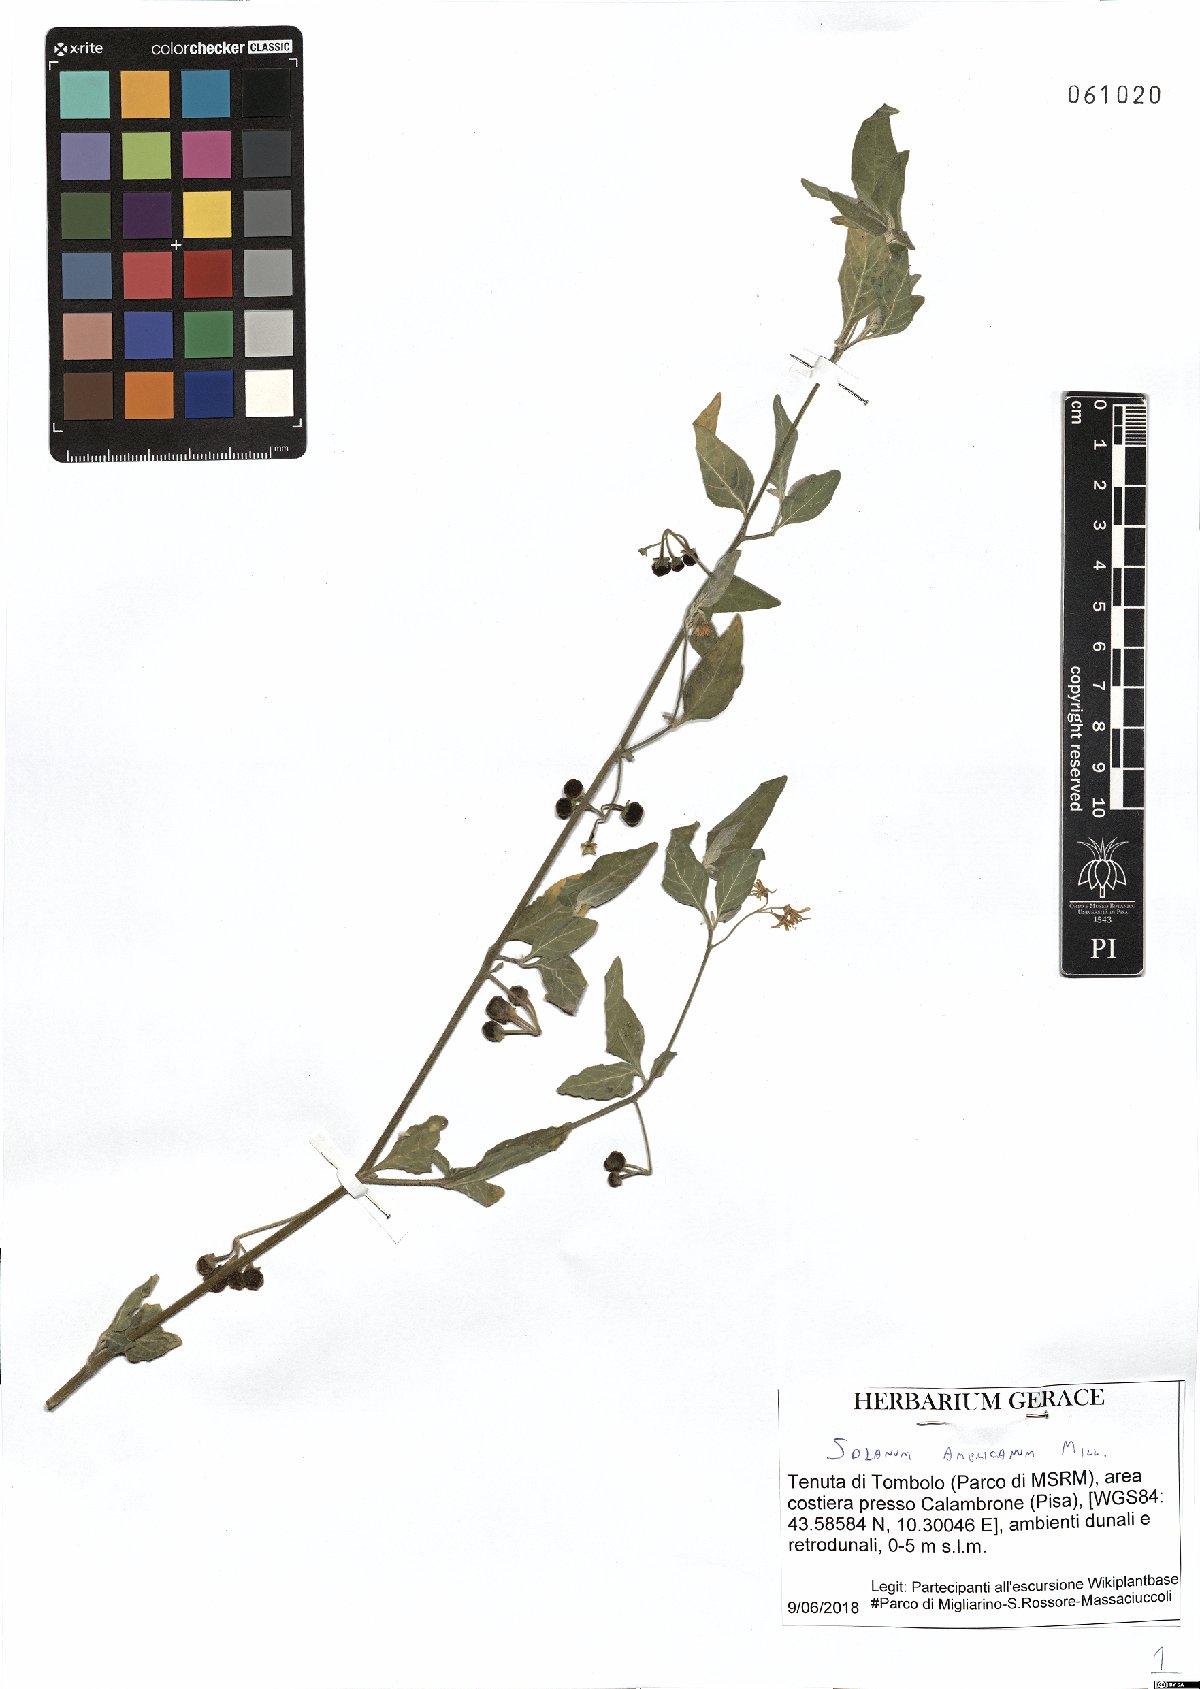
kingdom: Plantae
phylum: Tracheophyta
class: Magnoliopsida
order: Solanales
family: Solanaceae
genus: Solanum
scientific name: Solanum americanum
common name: American black nightshade
